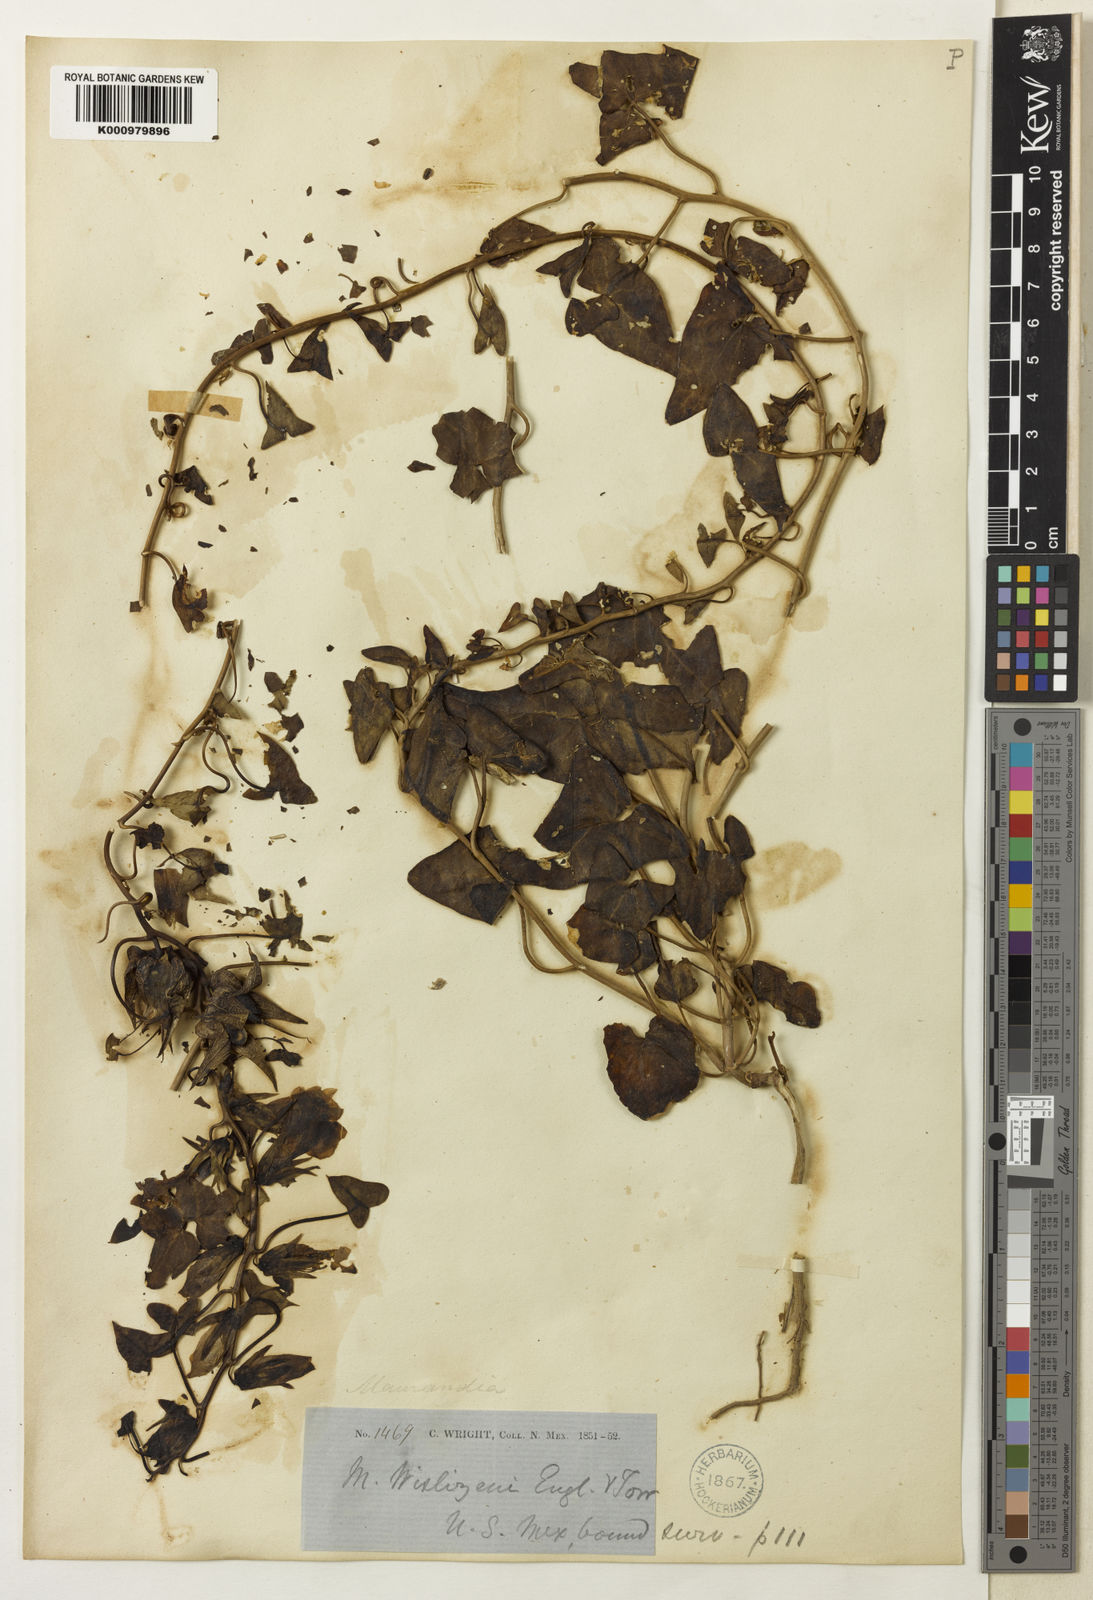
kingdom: Plantae
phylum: Tracheophyta
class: Magnoliopsida
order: Lamiales
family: Plantaginaceae
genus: Epixiphium
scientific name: Epixiphium wislizeni
